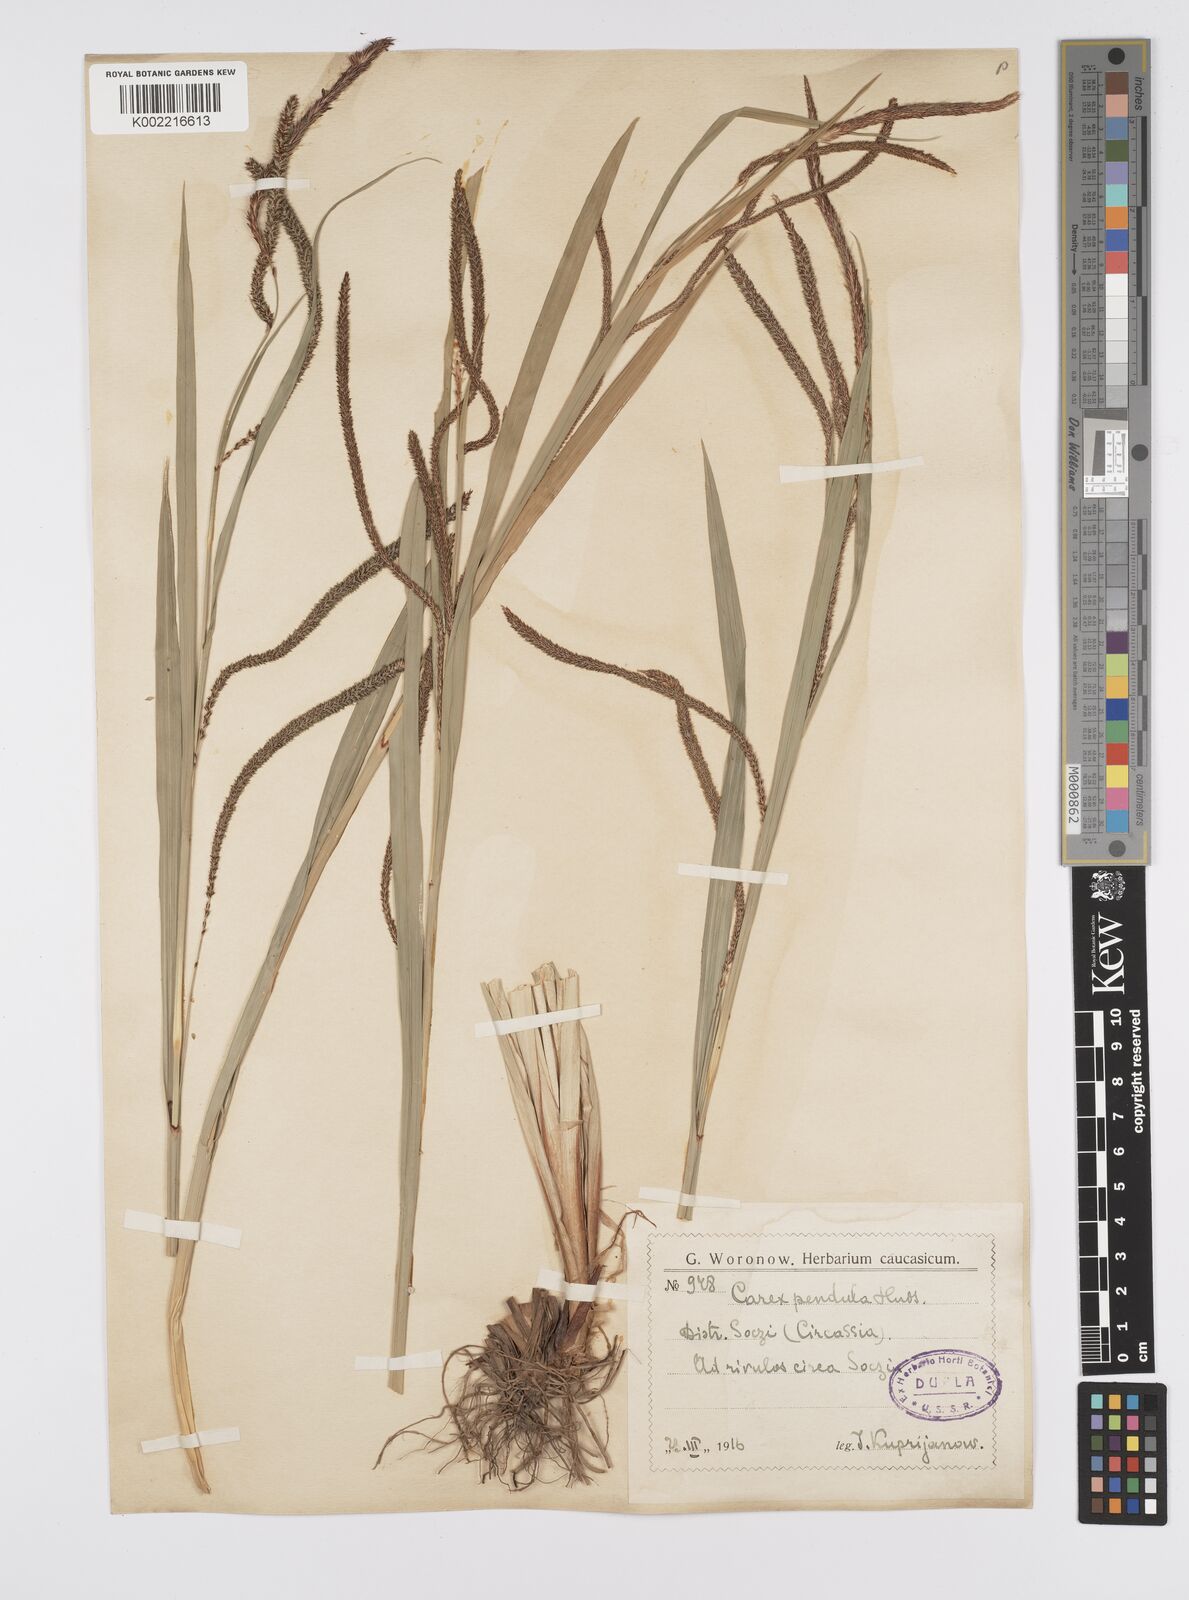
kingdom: Plantae
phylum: Tracheophyta
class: Liliopsida
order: Poales
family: Cyperaceae
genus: Carex
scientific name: Carex pendula
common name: Pendulous sedge
